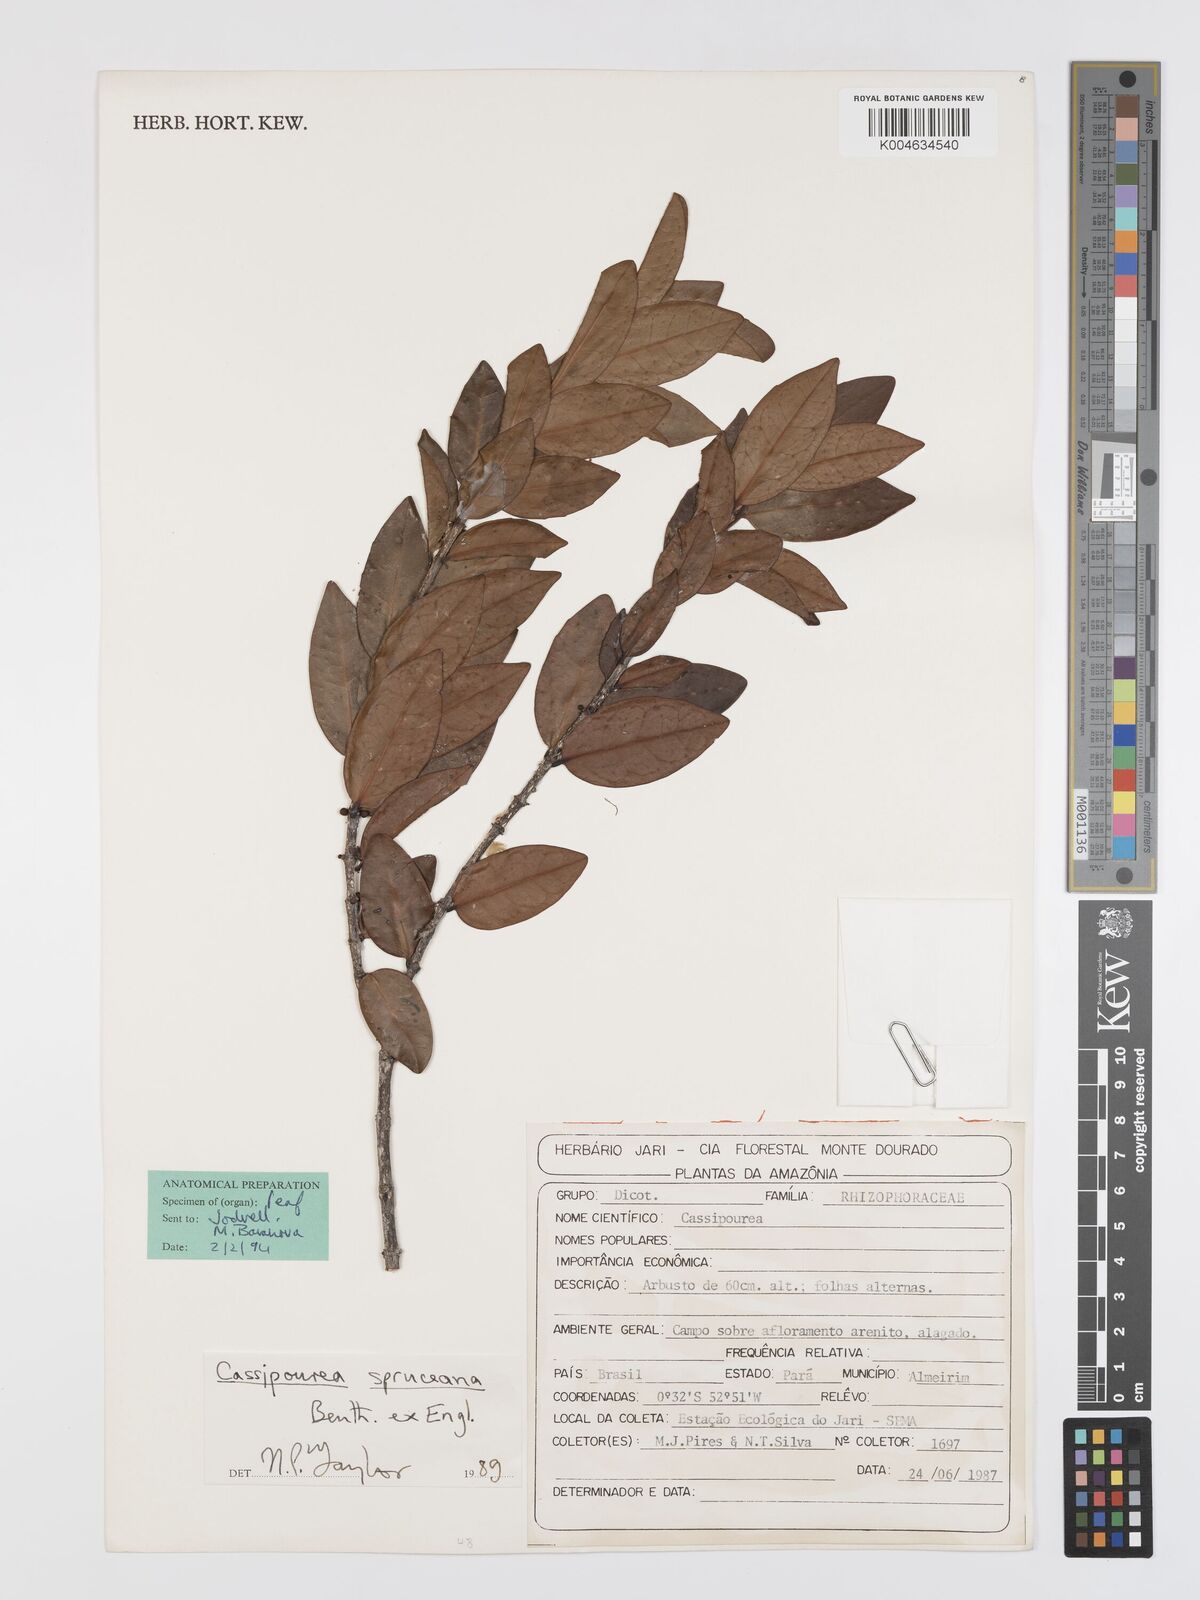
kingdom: Plantae
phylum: Tracheophyta
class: Magnoliopsida
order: Malpighiales
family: Rhizophoraceae
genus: Cassipourea
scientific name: Cassipourea spruceana
